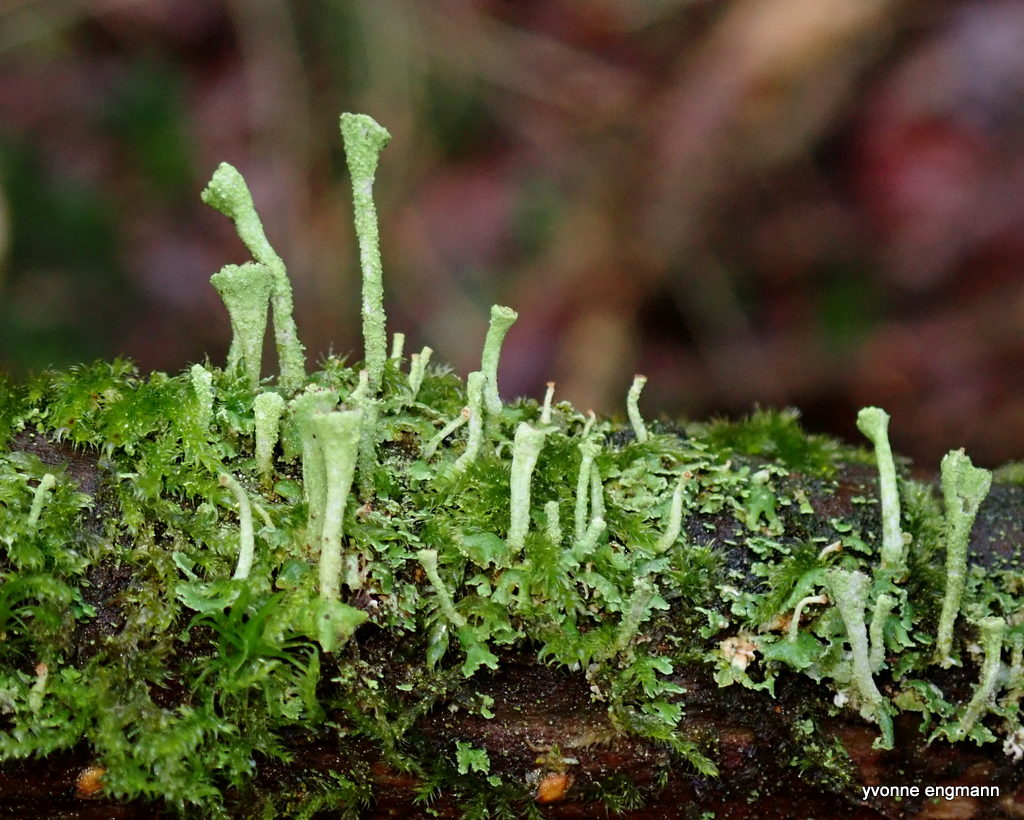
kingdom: Fungi
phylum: Ascomycota
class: Lecanoromycetes
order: Lecanorales
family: Cladoniaceae
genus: Cladonia
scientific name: Cladonia
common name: brungrøn bægerlav
